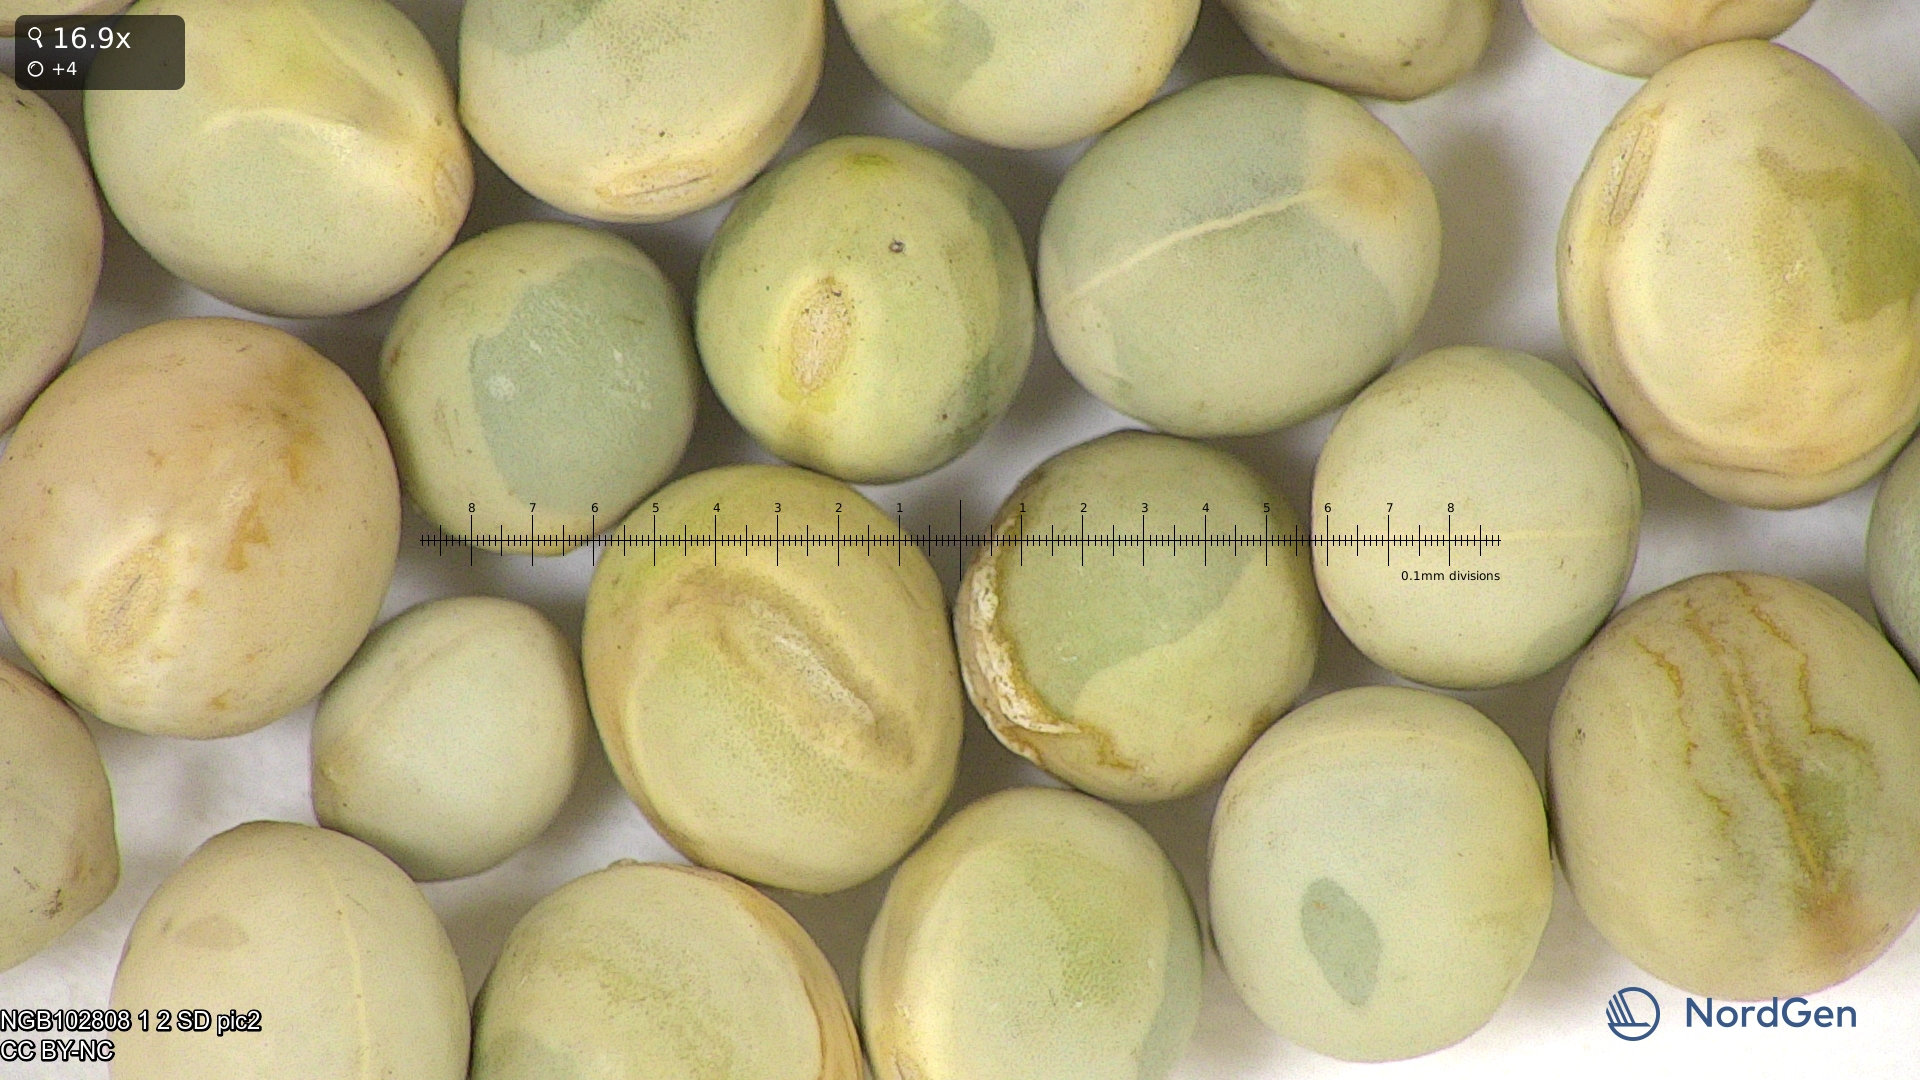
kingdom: Plantae
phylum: Tracheophyta
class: Magnoliopsida
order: Fabales
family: Fabaceae
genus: Lathyrus
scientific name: Lathyrus oleraceus
